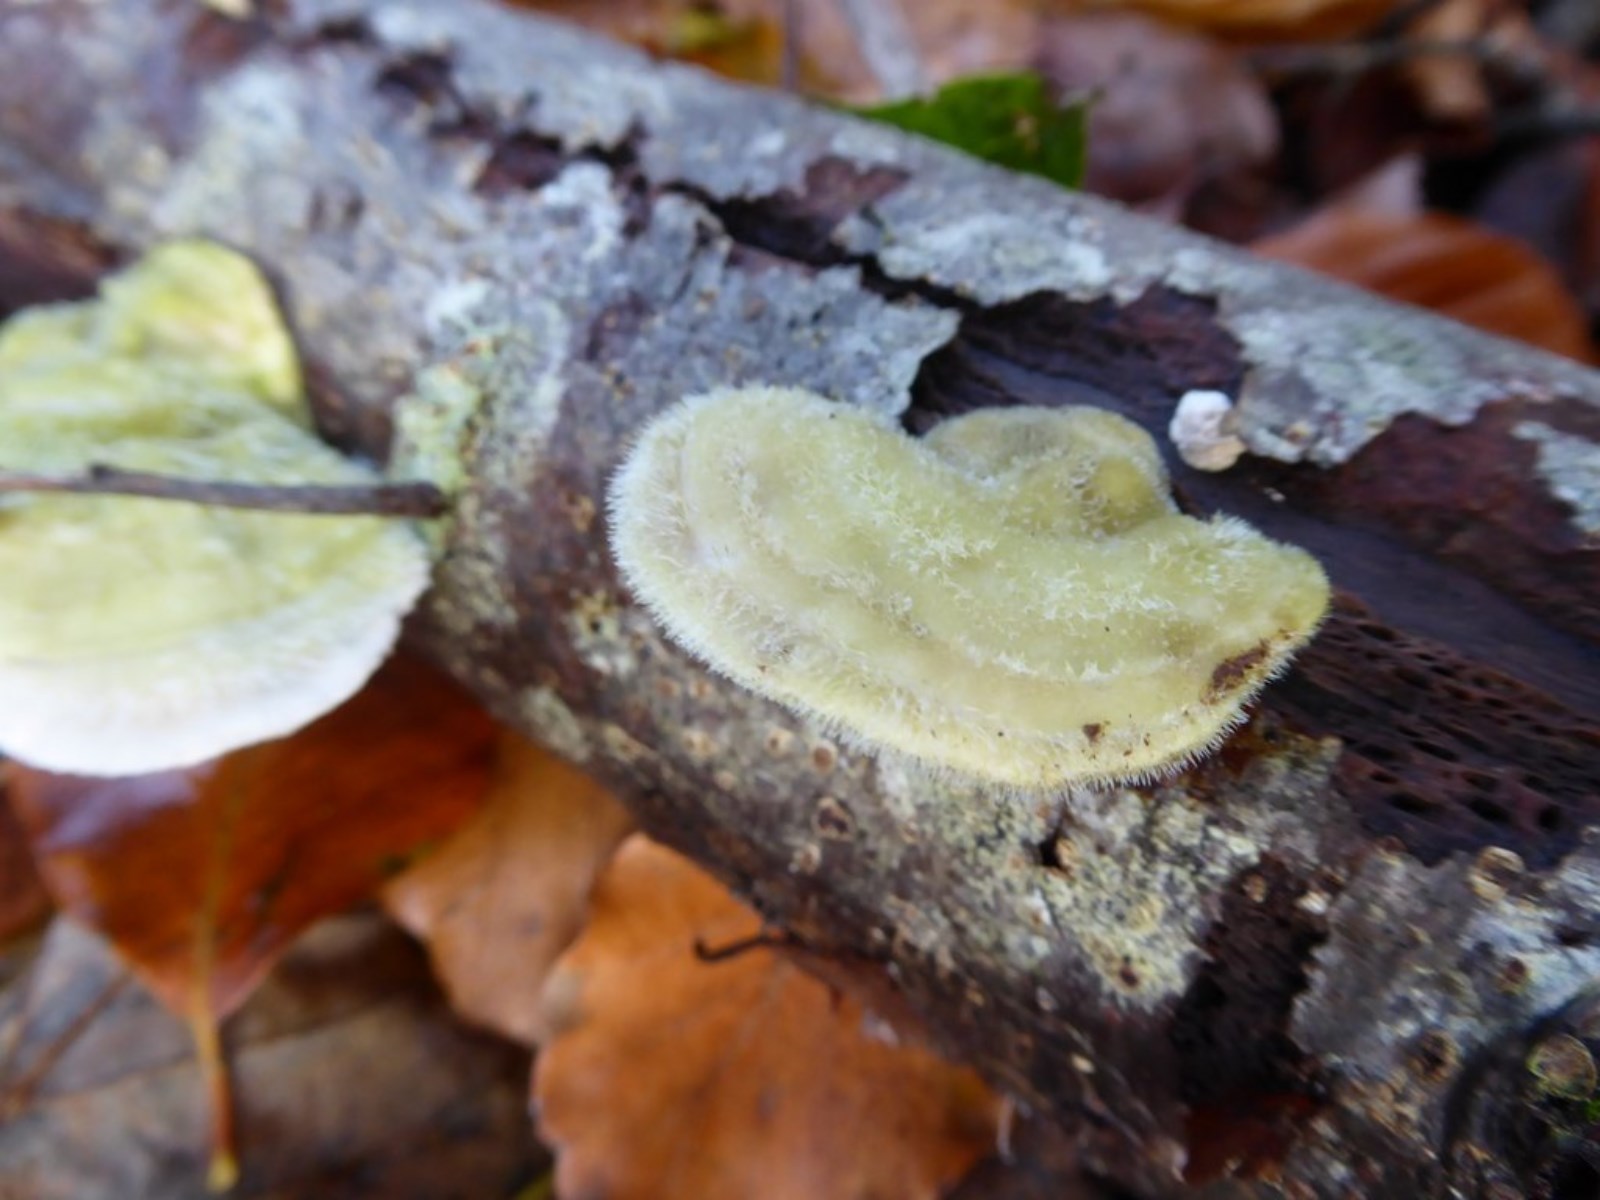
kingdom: Fungi
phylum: Basidiomycota
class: Agaricomycetes
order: Polyporales
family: Polyporaceae
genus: Trametes
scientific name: Trametes hirsuta
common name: håret læderporesvamp
